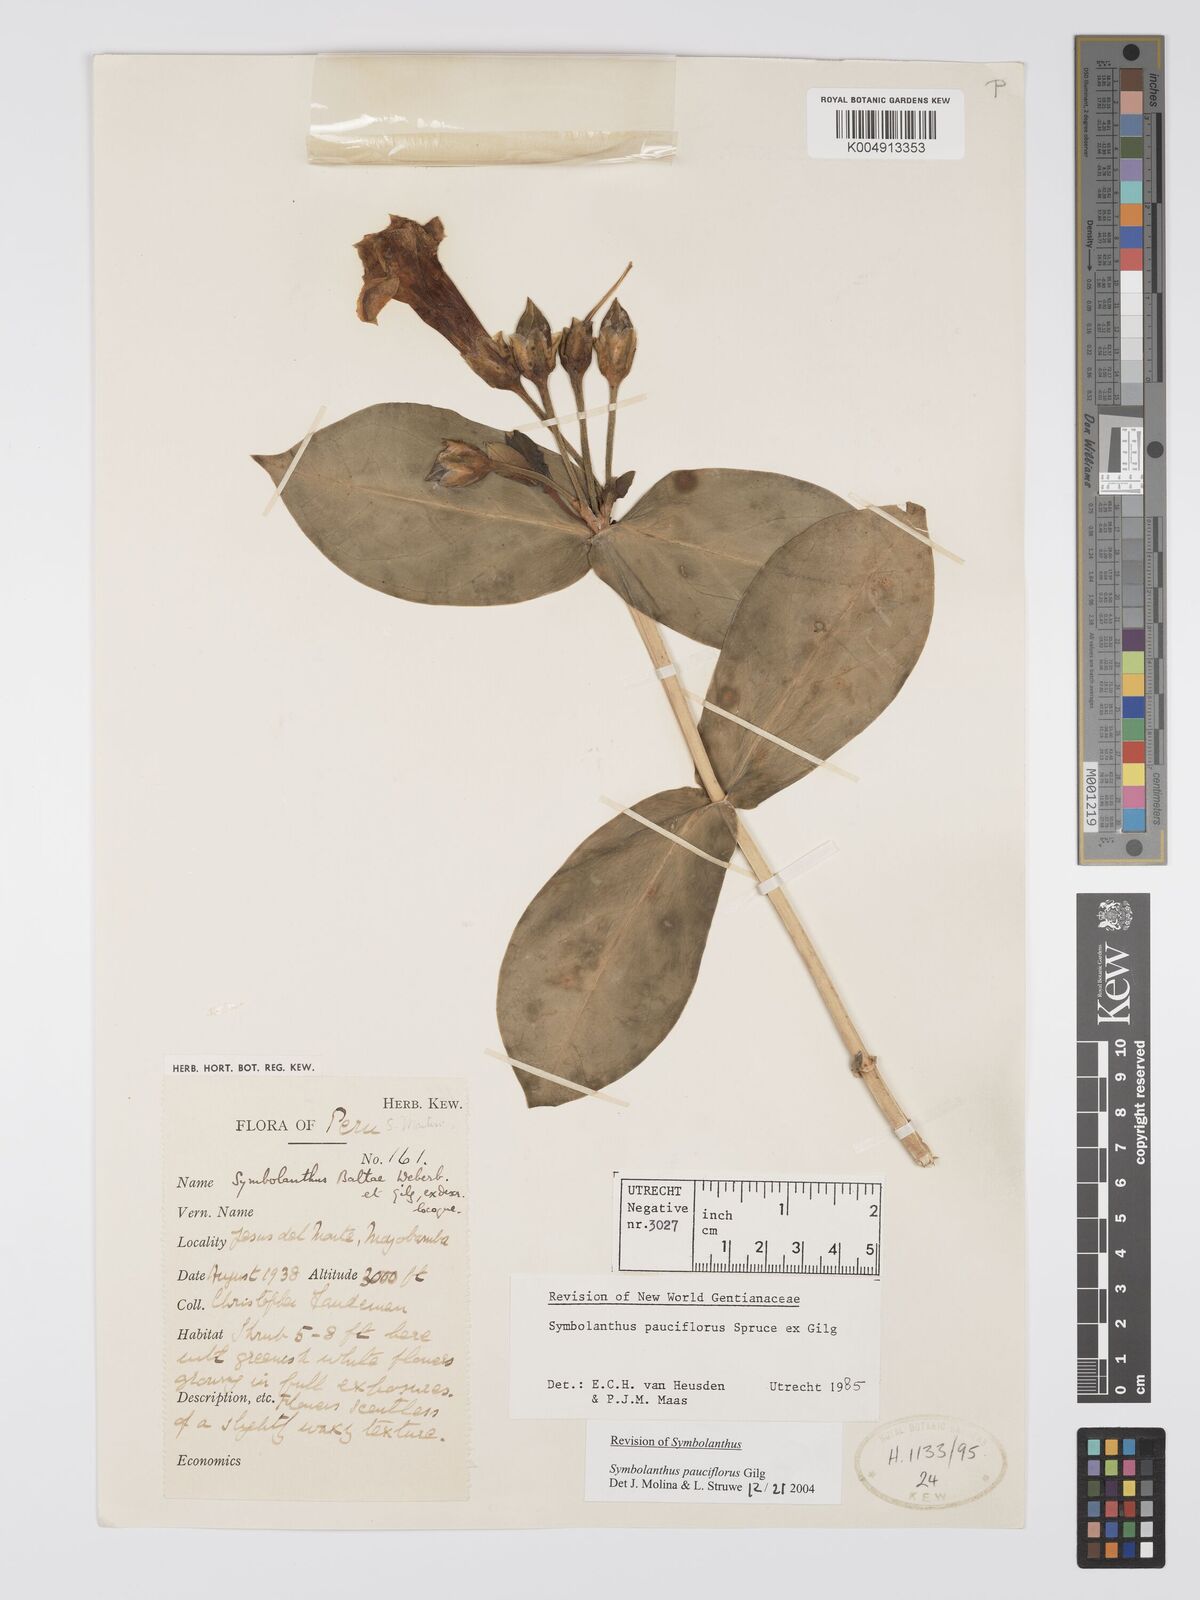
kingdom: Plantae
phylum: Tracheophyta
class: Magnoliopsida
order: Gentianales
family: Gentianaceae
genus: Symbolanthus
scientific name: Symbolanthus pauciflorus
